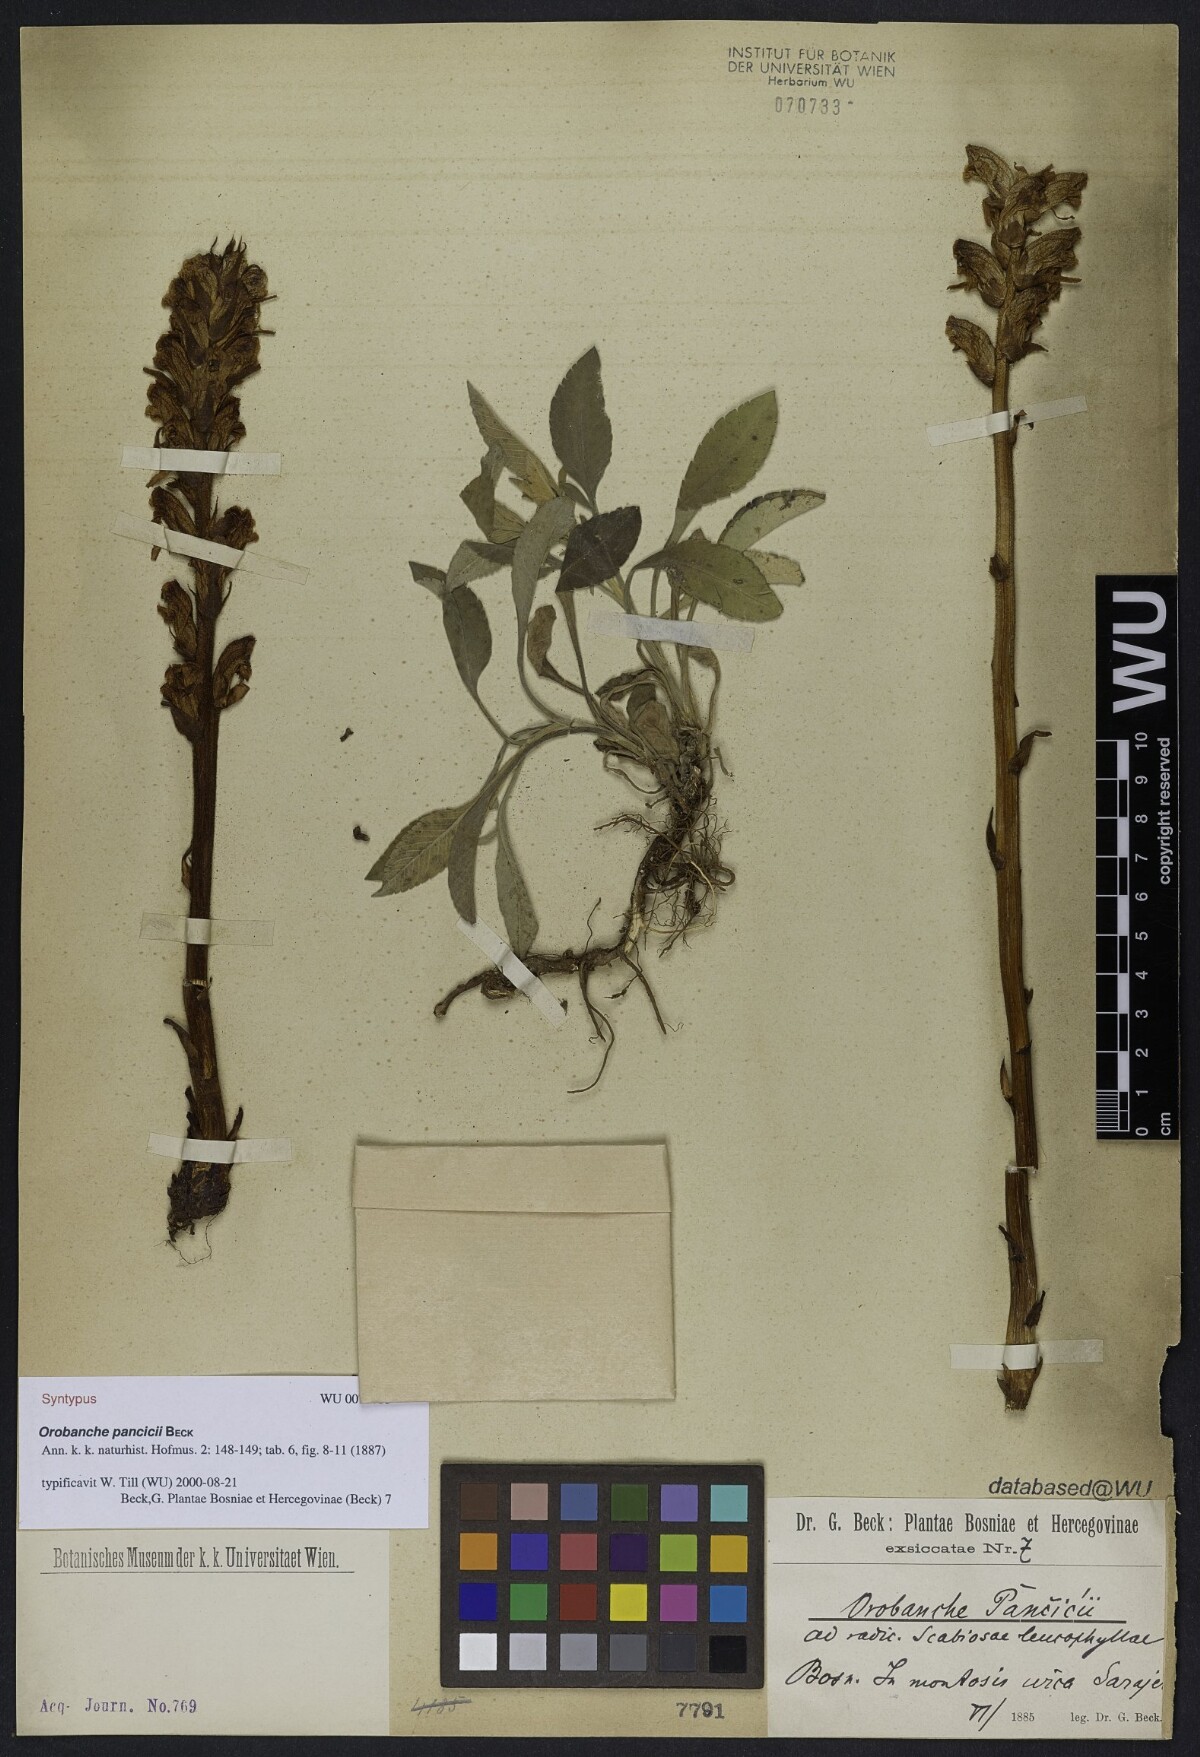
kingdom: Plantae
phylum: Tracheophyta
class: Magnoliopsida
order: Lamiales
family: Orobanchaceae
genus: Orobanche
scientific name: Orobanche pancicii
